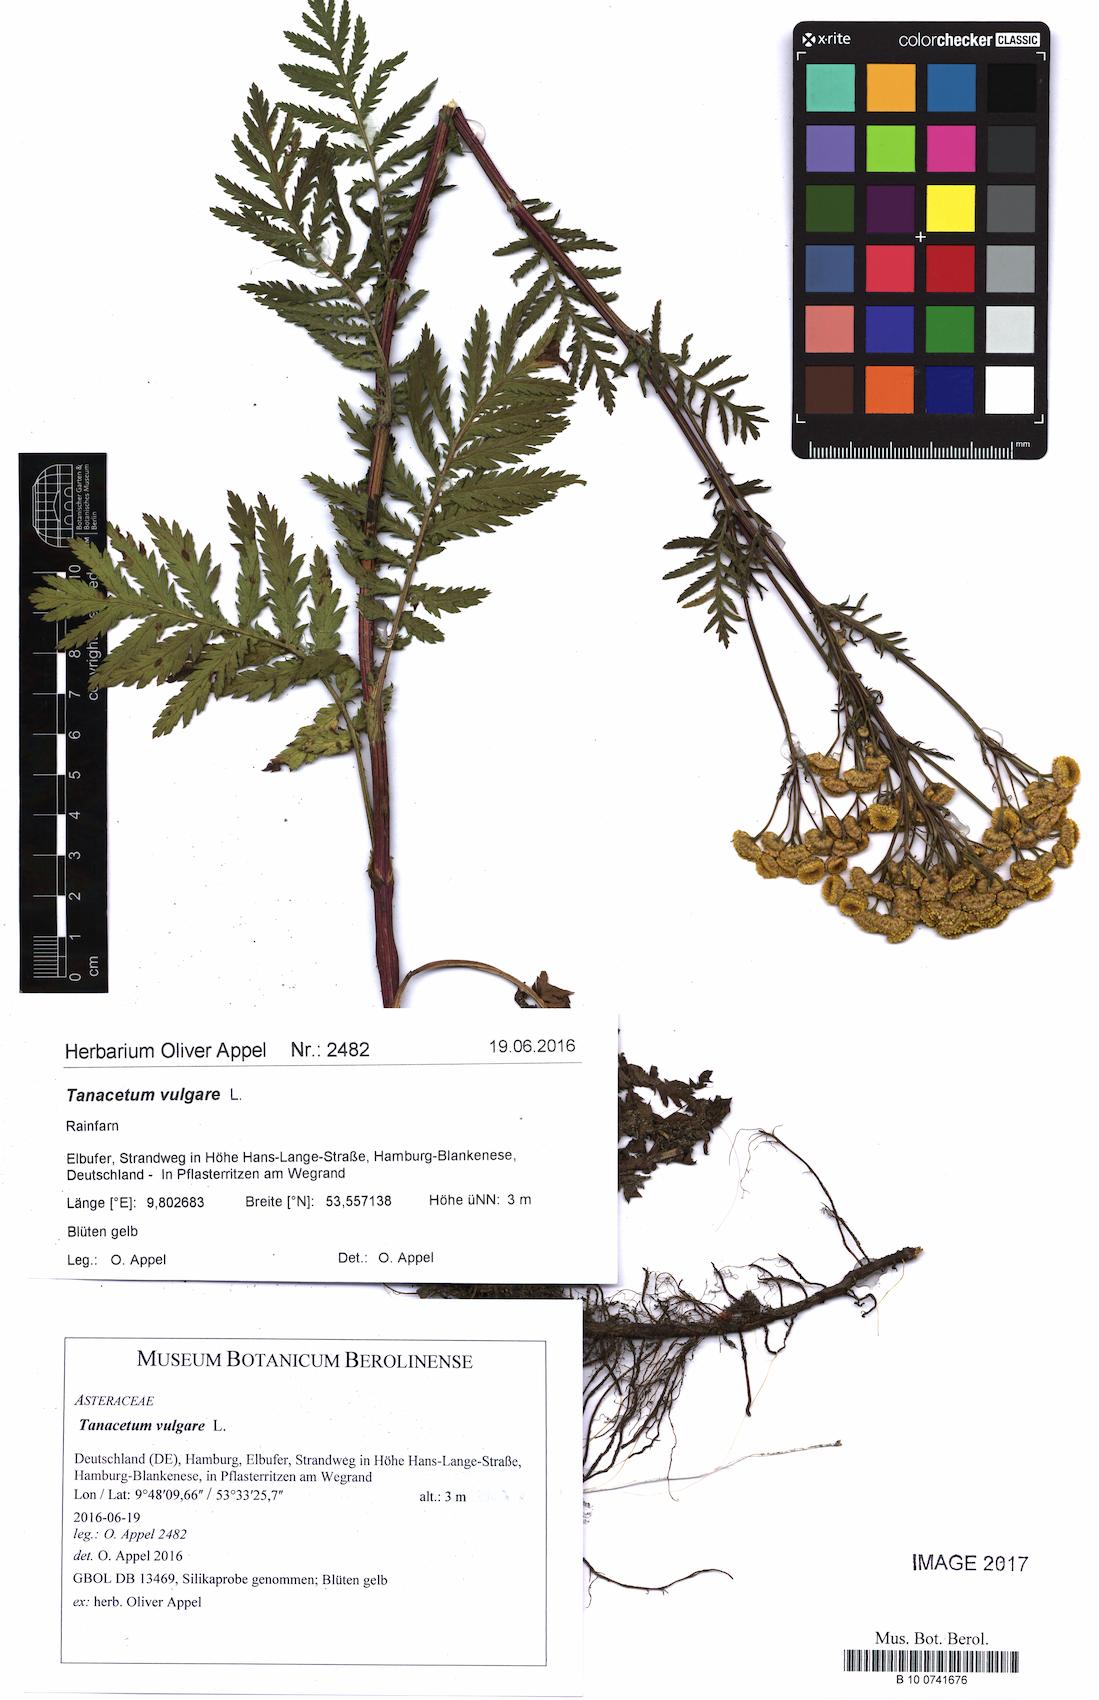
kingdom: Plantae
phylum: Tracheophyta
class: Magnoliopsida
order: Asterales
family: Asteraceae
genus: Tanacetum
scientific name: Tanacetum vulgare
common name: Common tansy
